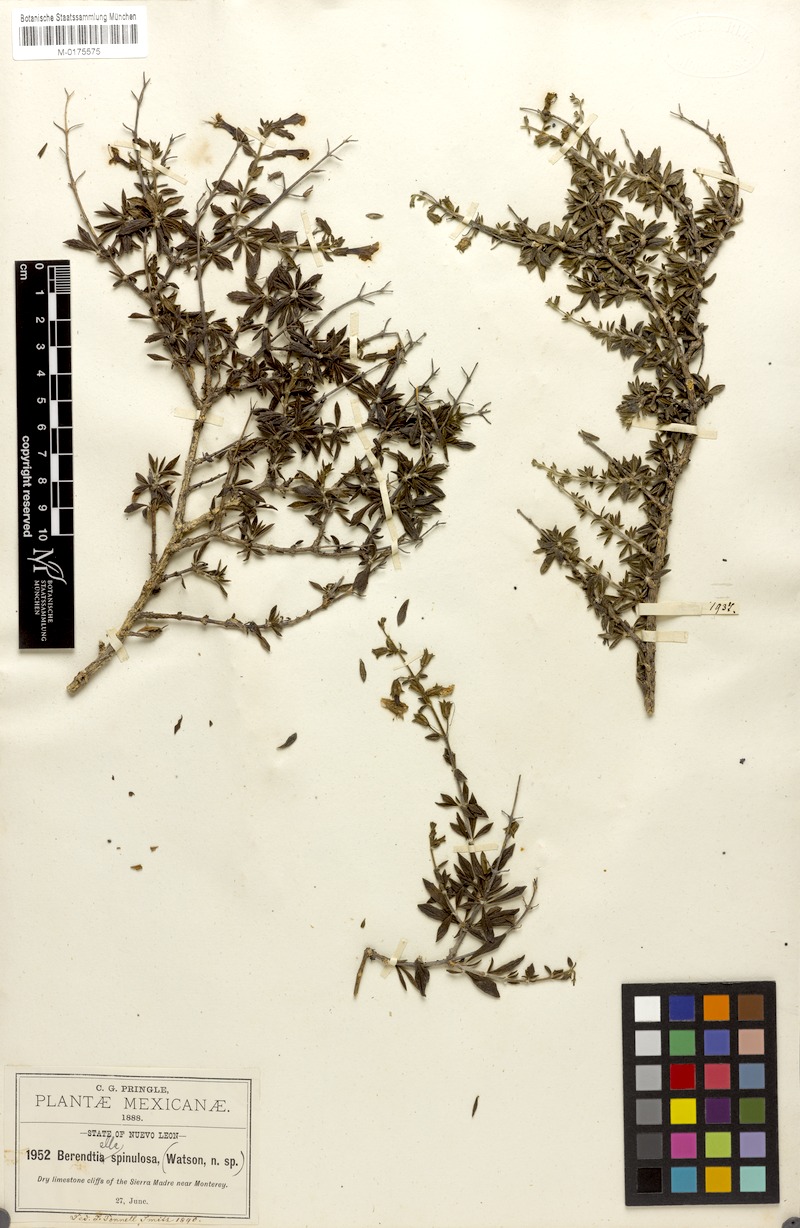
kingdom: Plantae
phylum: Tracheophyta
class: Magnoliopsida
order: Lamiales
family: Phrymaceae
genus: Hemichaena
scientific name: Hemichaena spinulosa
